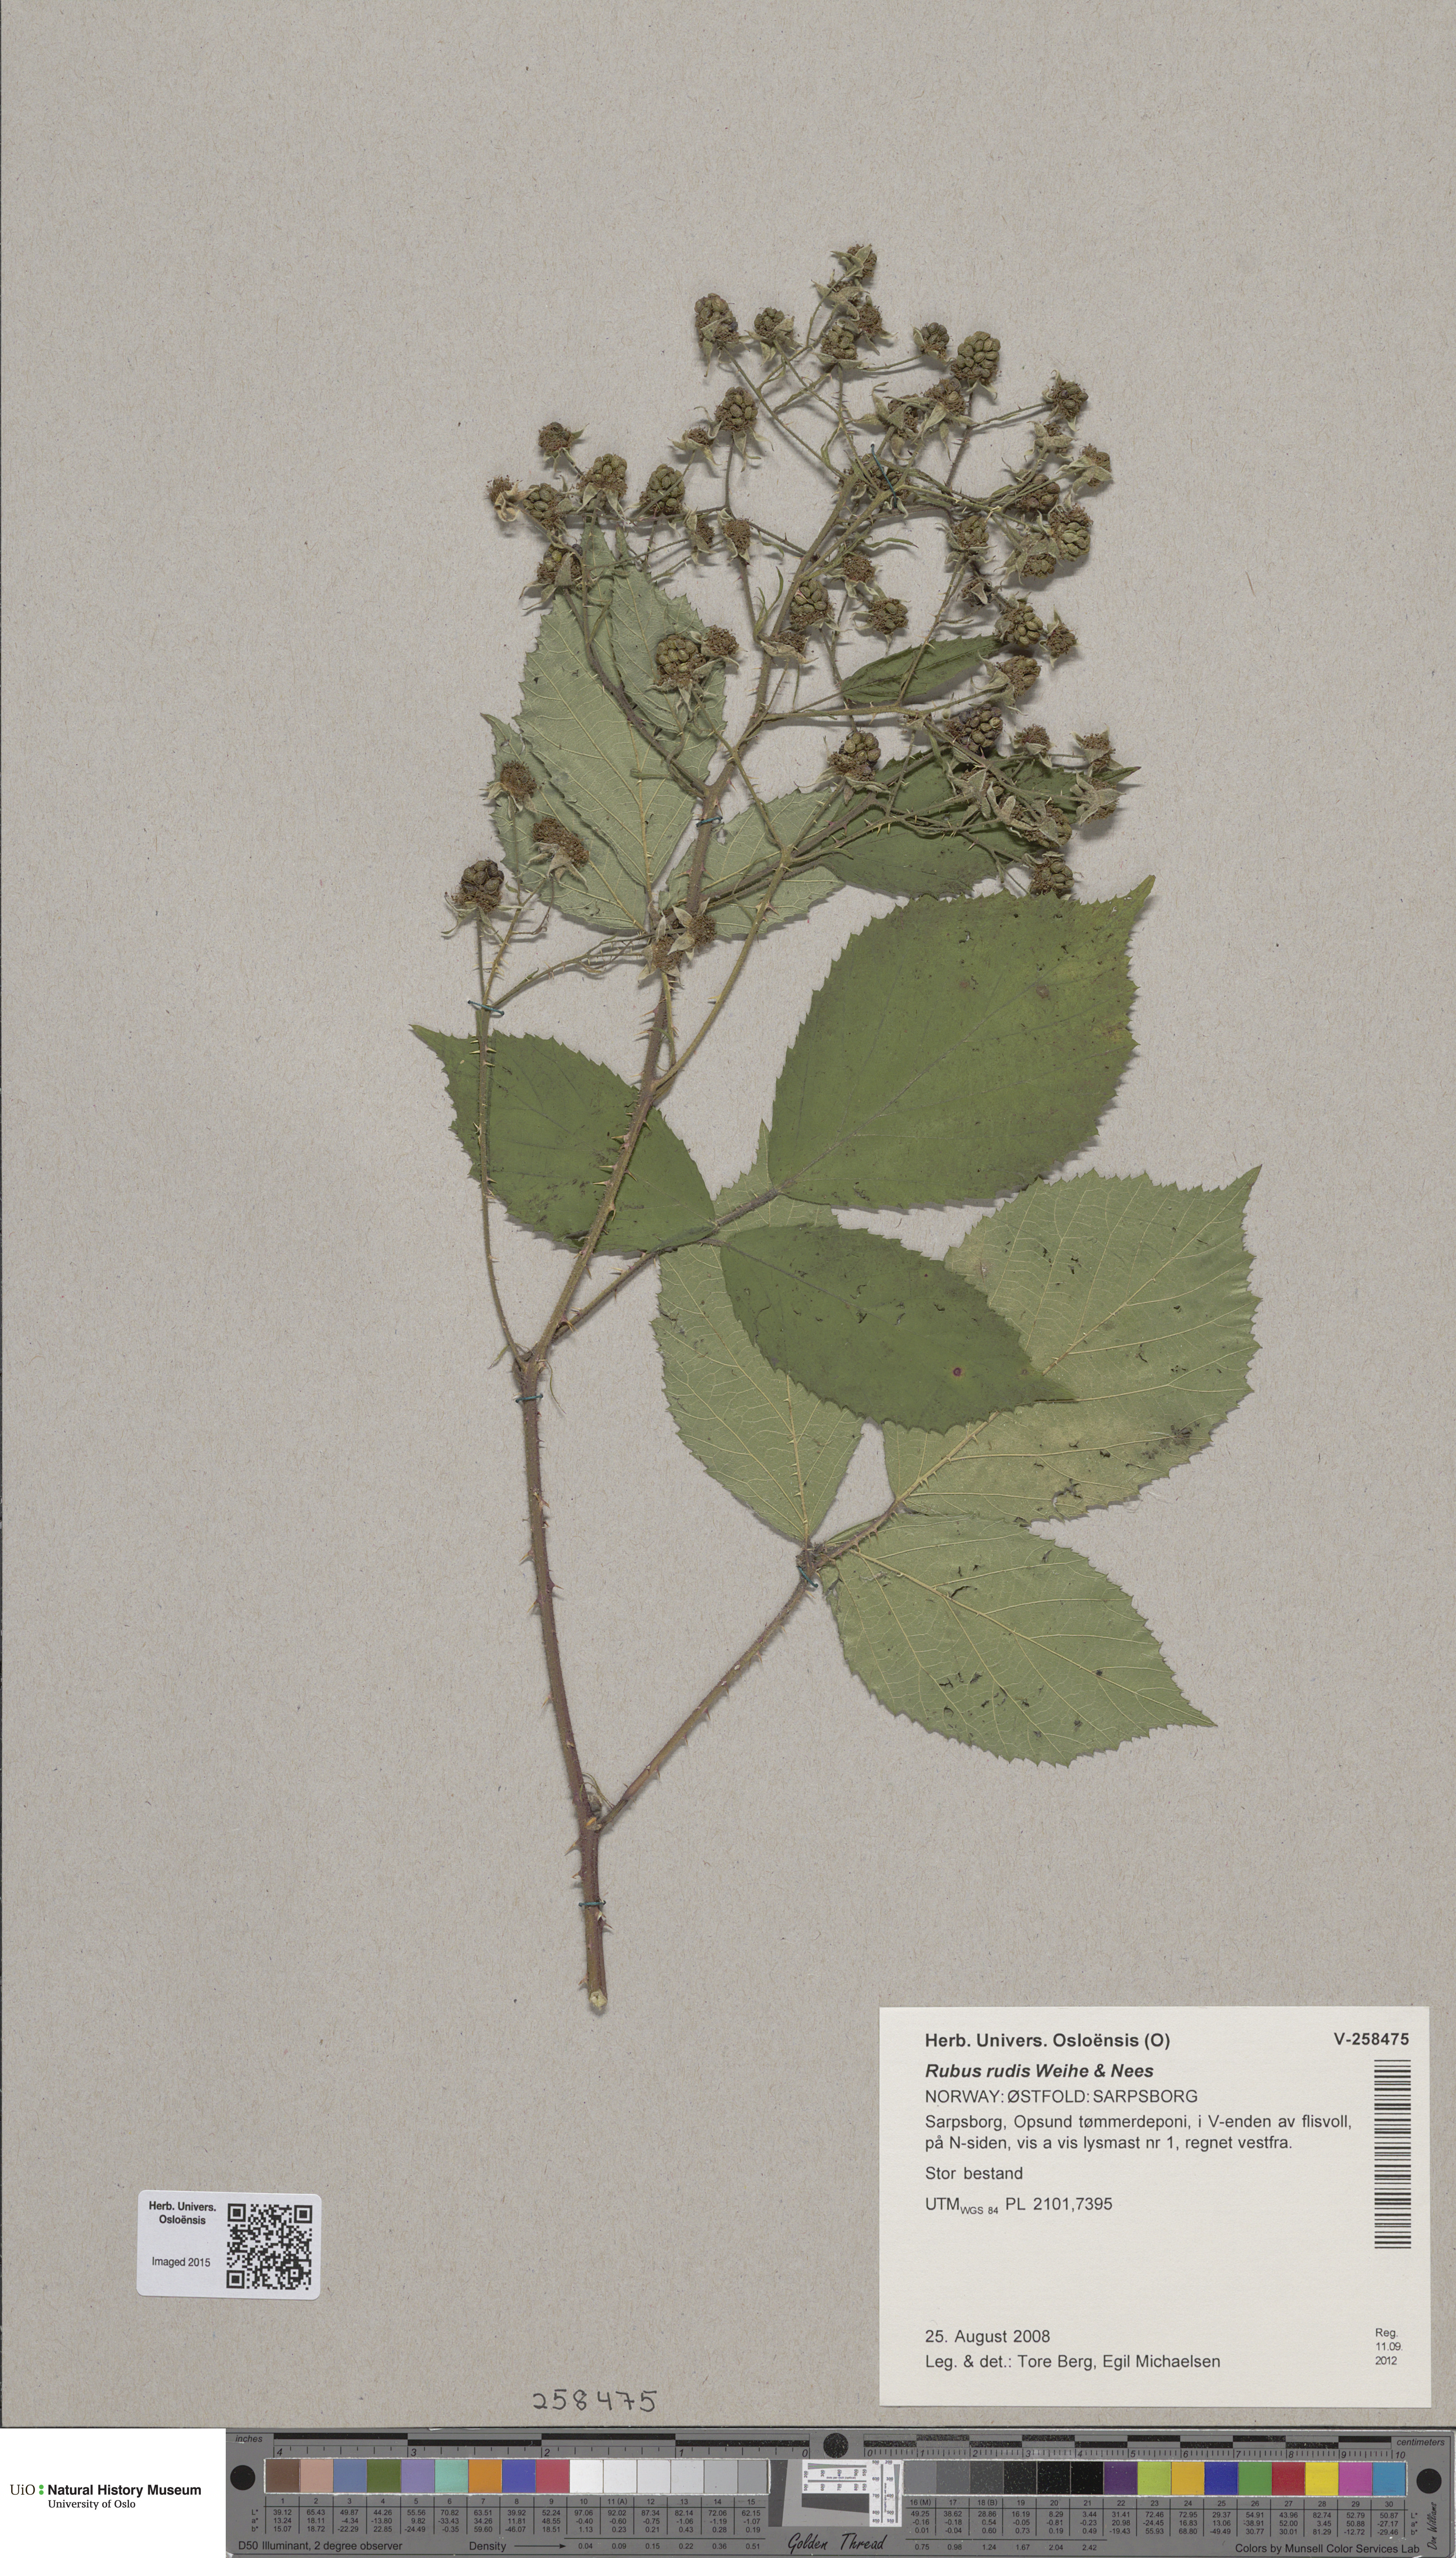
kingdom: Plantae
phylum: Tracheophyta
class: Magnoliopsida
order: Rosales
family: Rosaceae
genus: Rubus
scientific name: Rubus rudis
